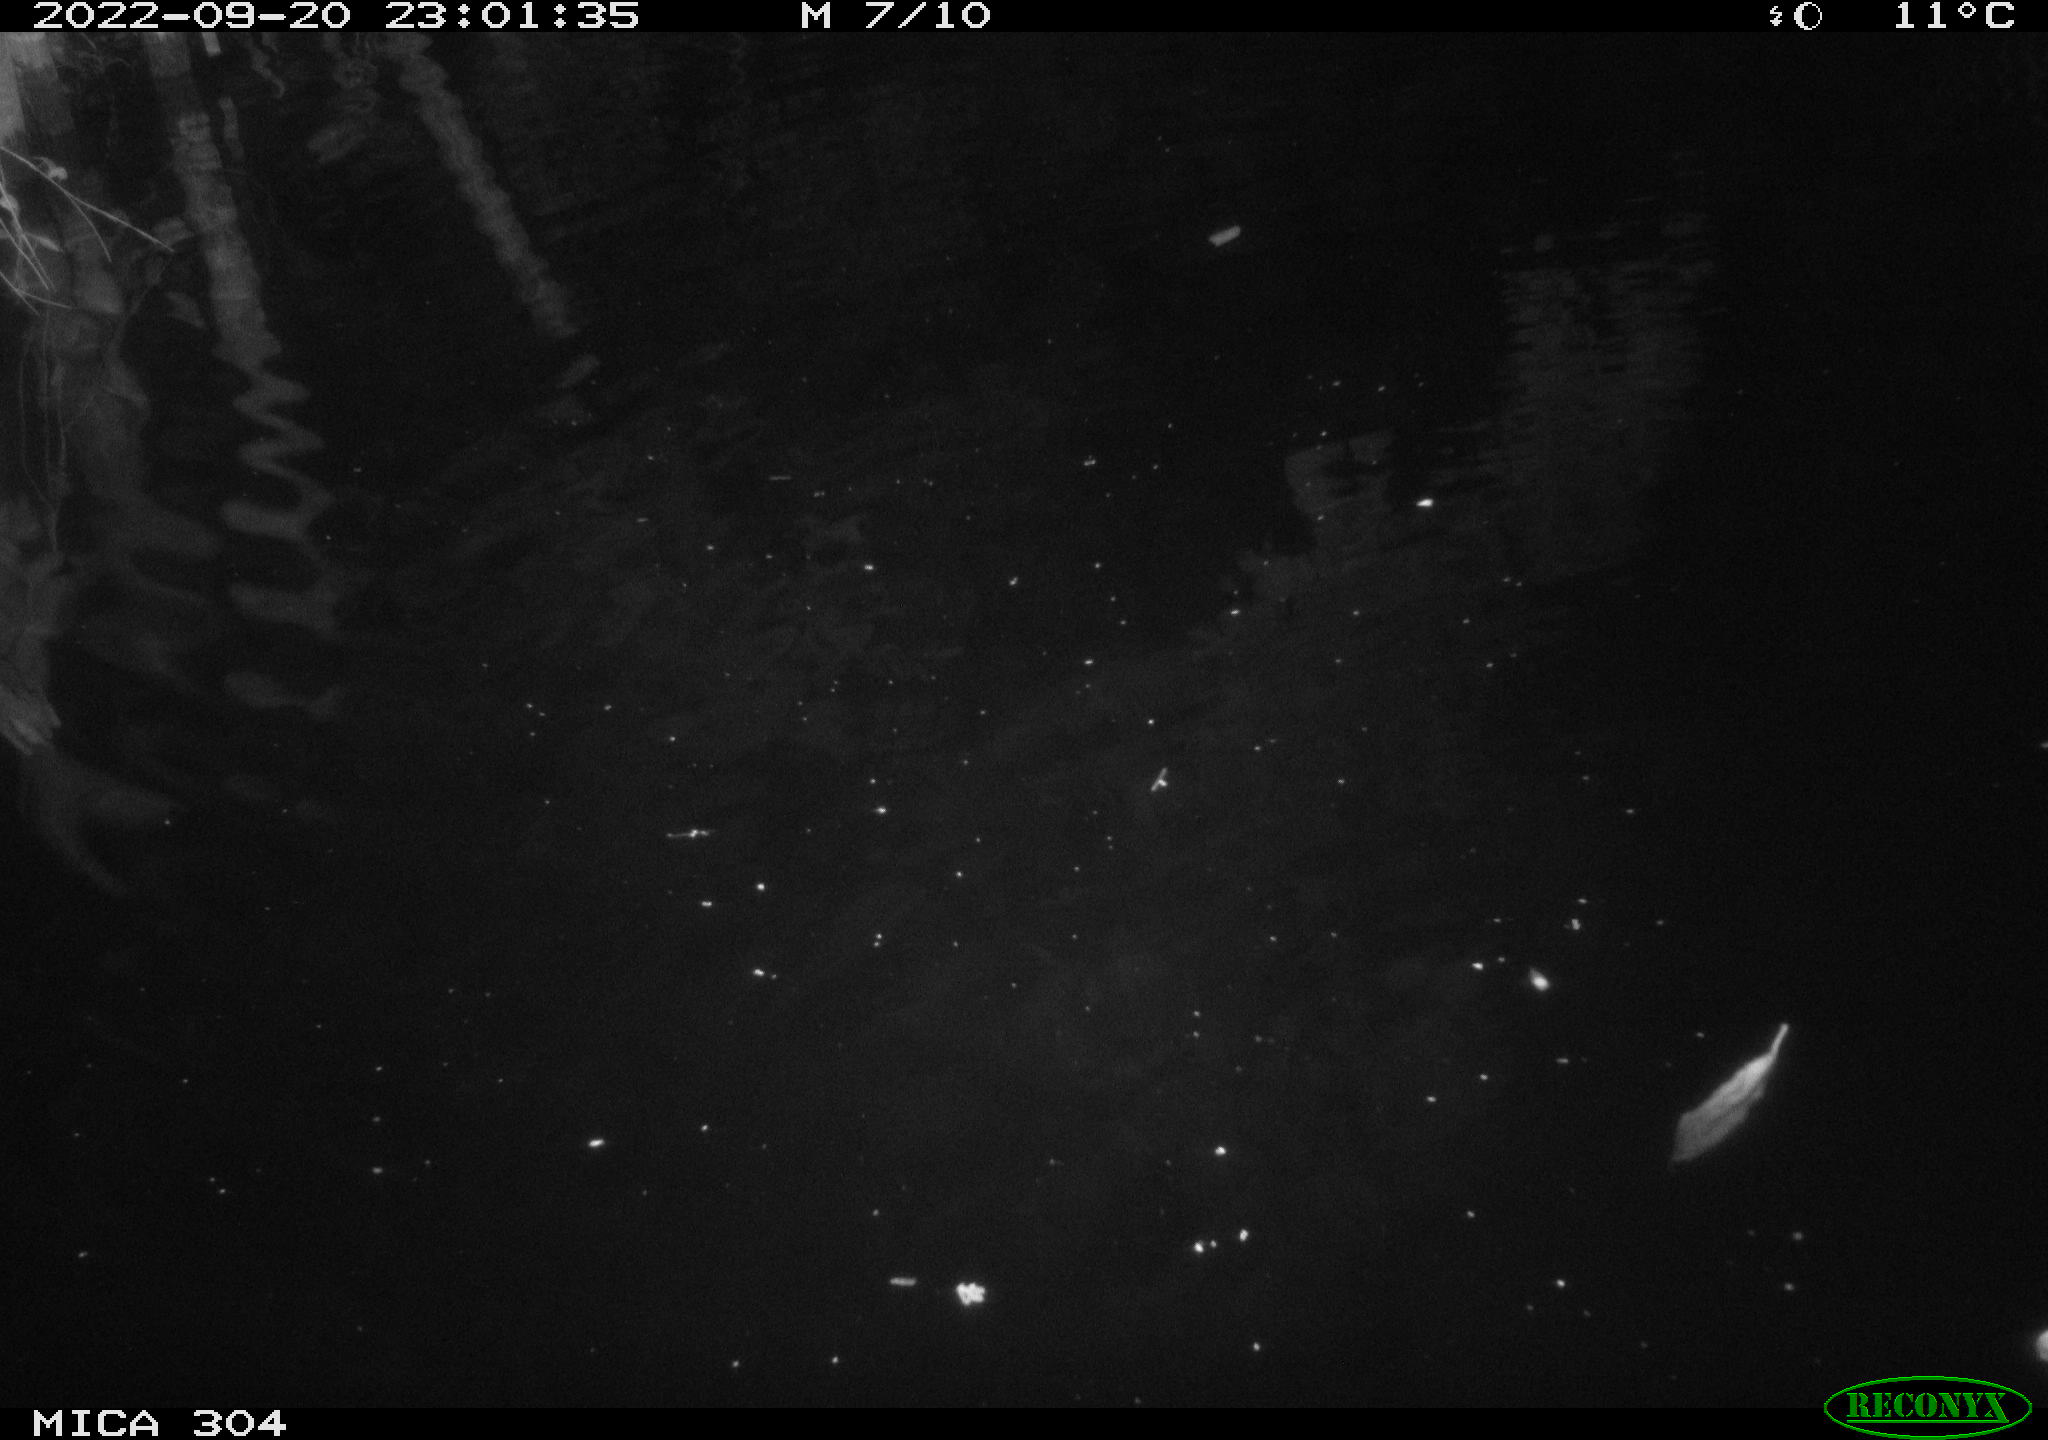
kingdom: Animalia
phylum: Chordata
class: Mammalia
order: Rodentia
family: Cricetidae
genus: Ondatra
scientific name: Ondatra zibethicus
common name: Muskrat
